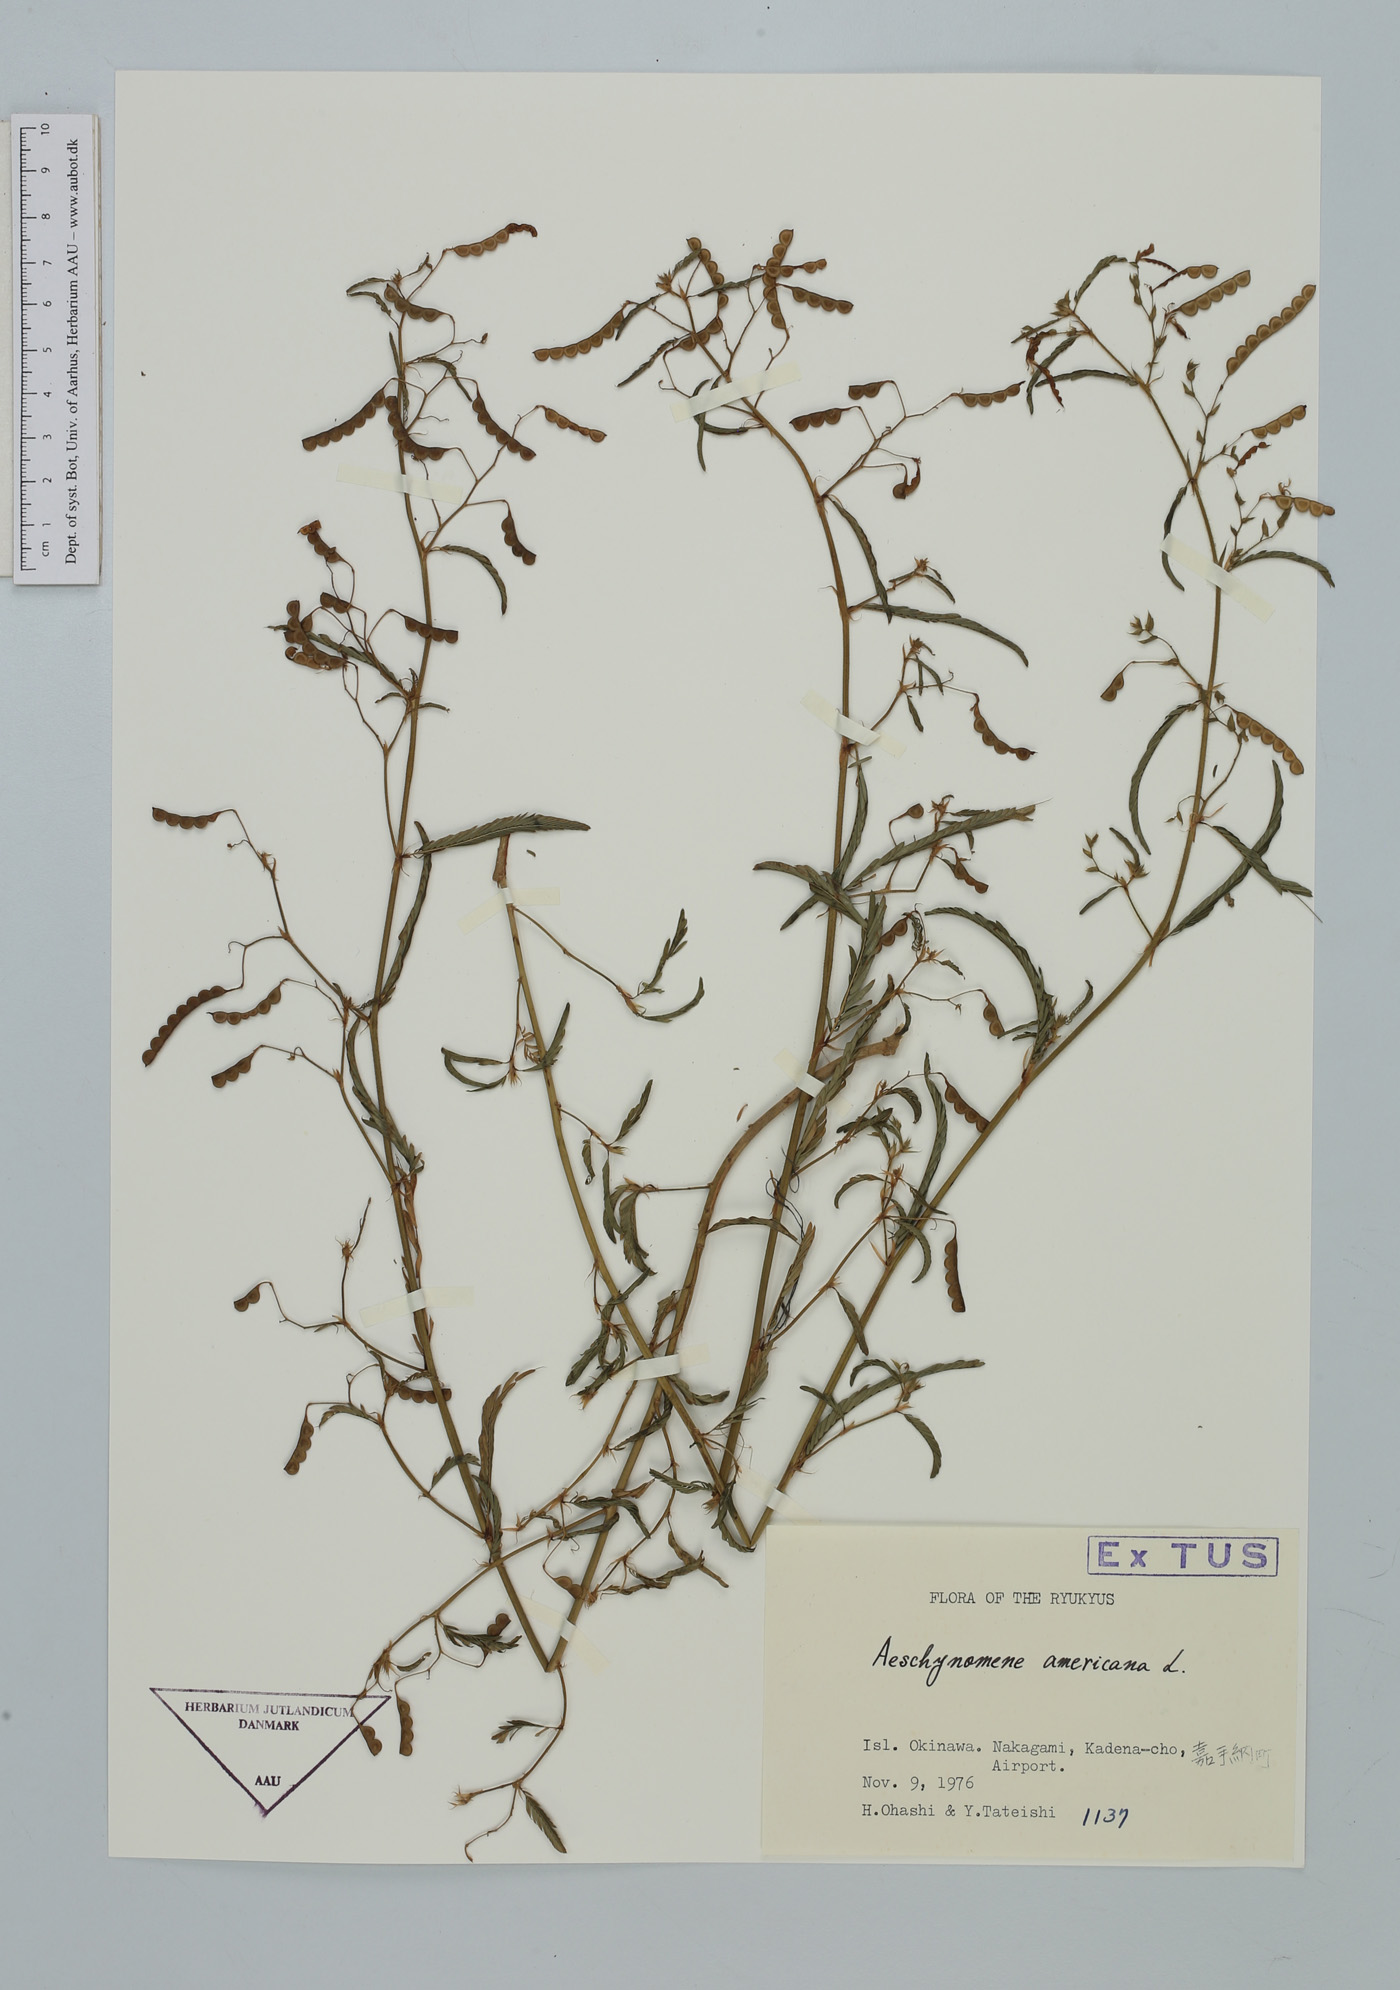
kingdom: Plantae
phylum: Tracheophyta
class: Magnoliopsida
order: Fabales
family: Fabaceae
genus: Aeschynomene
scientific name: Aeschynomene americana
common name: Joint-vetch
